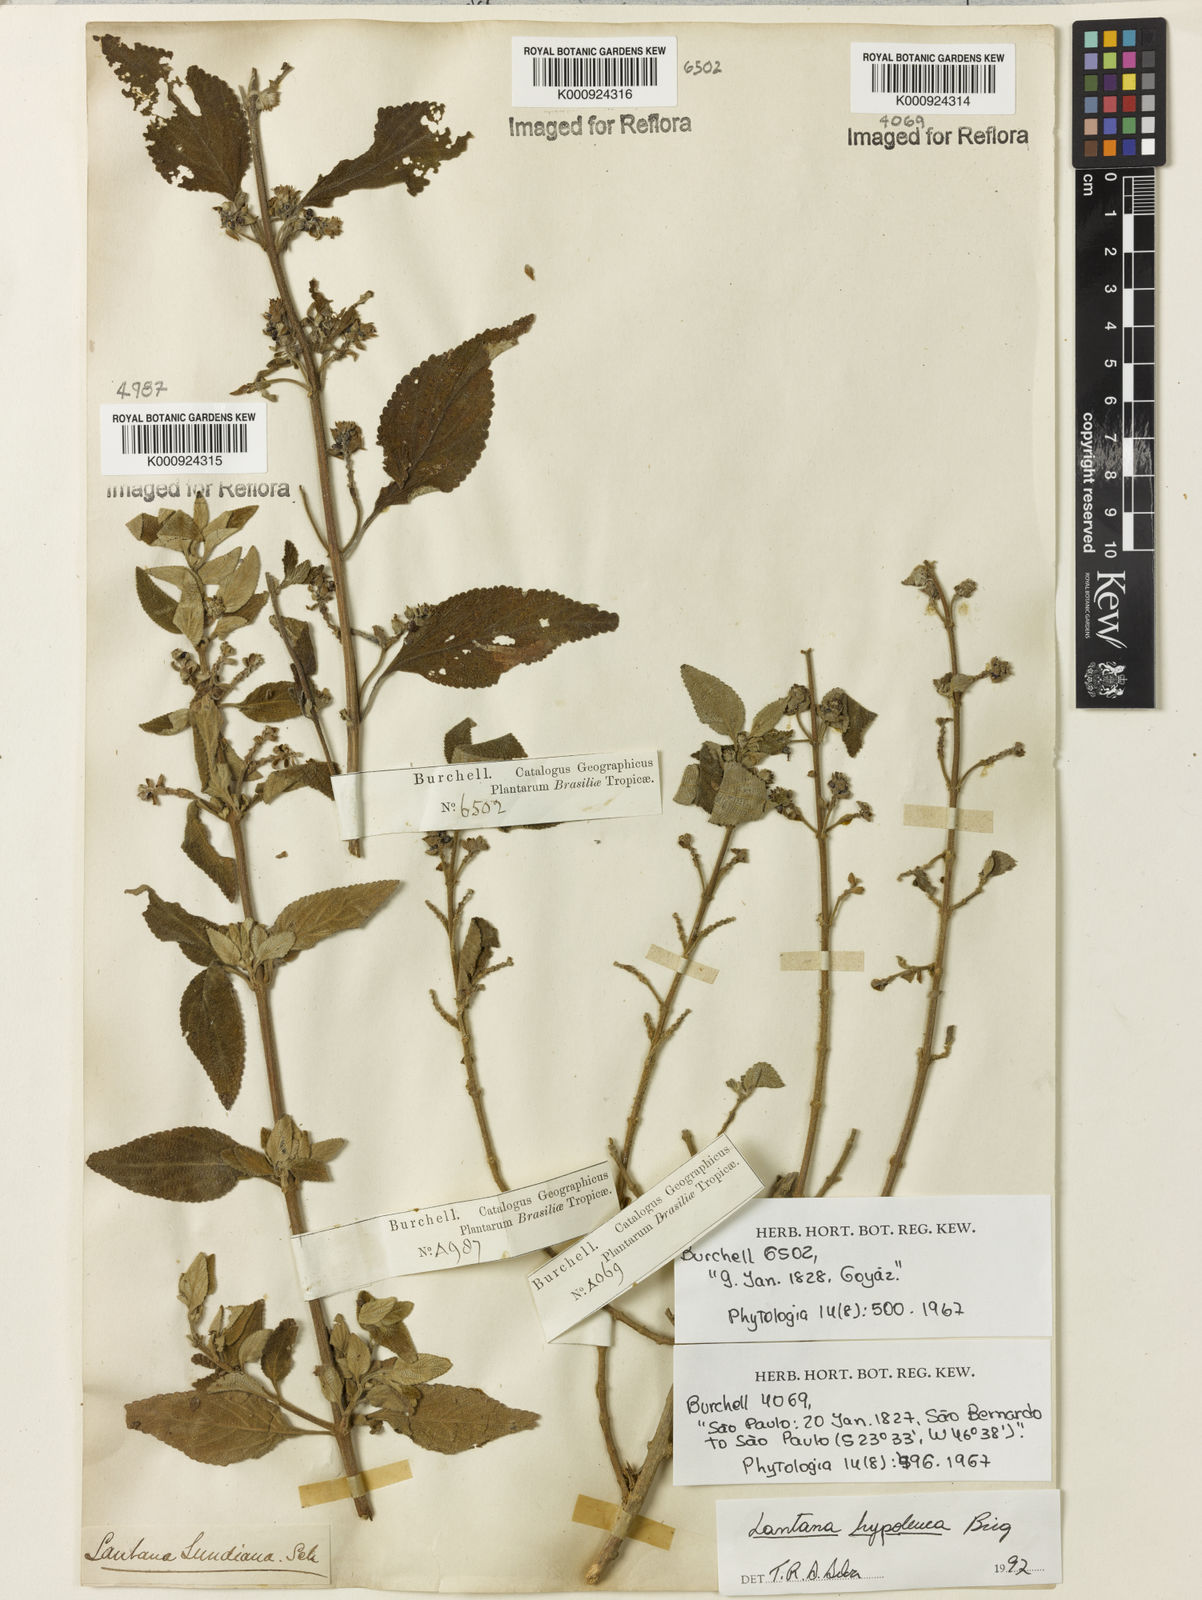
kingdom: Plantae
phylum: Tracheophyta
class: Magnoliopsida
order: Lamiales
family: Verbenaceae
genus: Lantana
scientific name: Lantana hypoleuca
